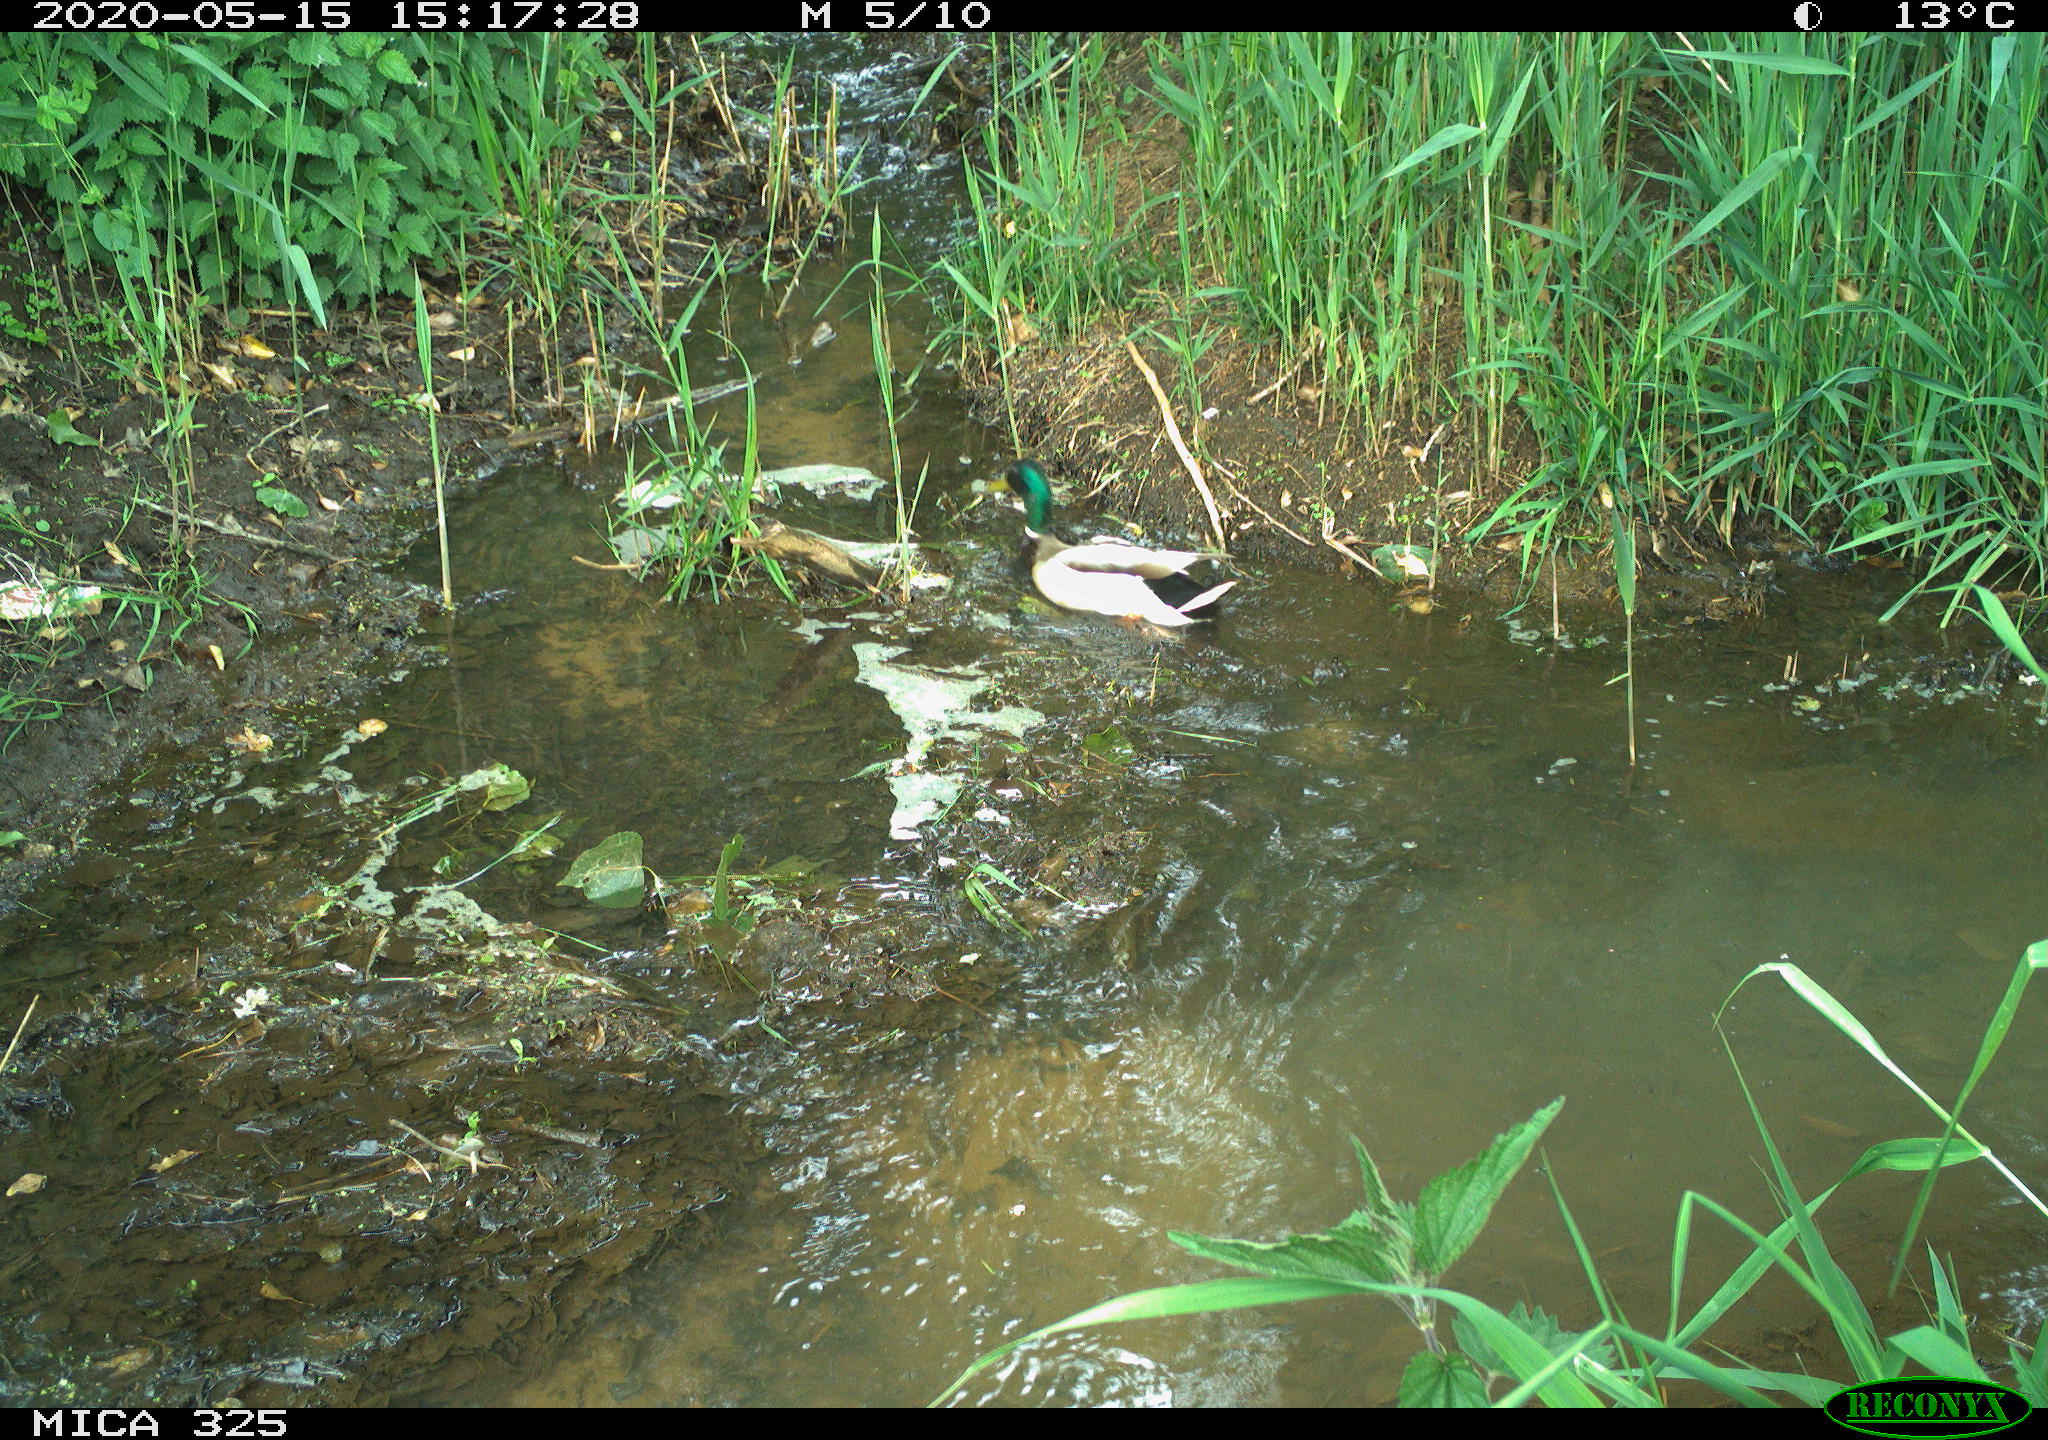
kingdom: Animalia
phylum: Chordata
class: Aves
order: Anseriformes
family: Anatidae
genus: Anas
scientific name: Anas platyrhynchos
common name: Mallard
